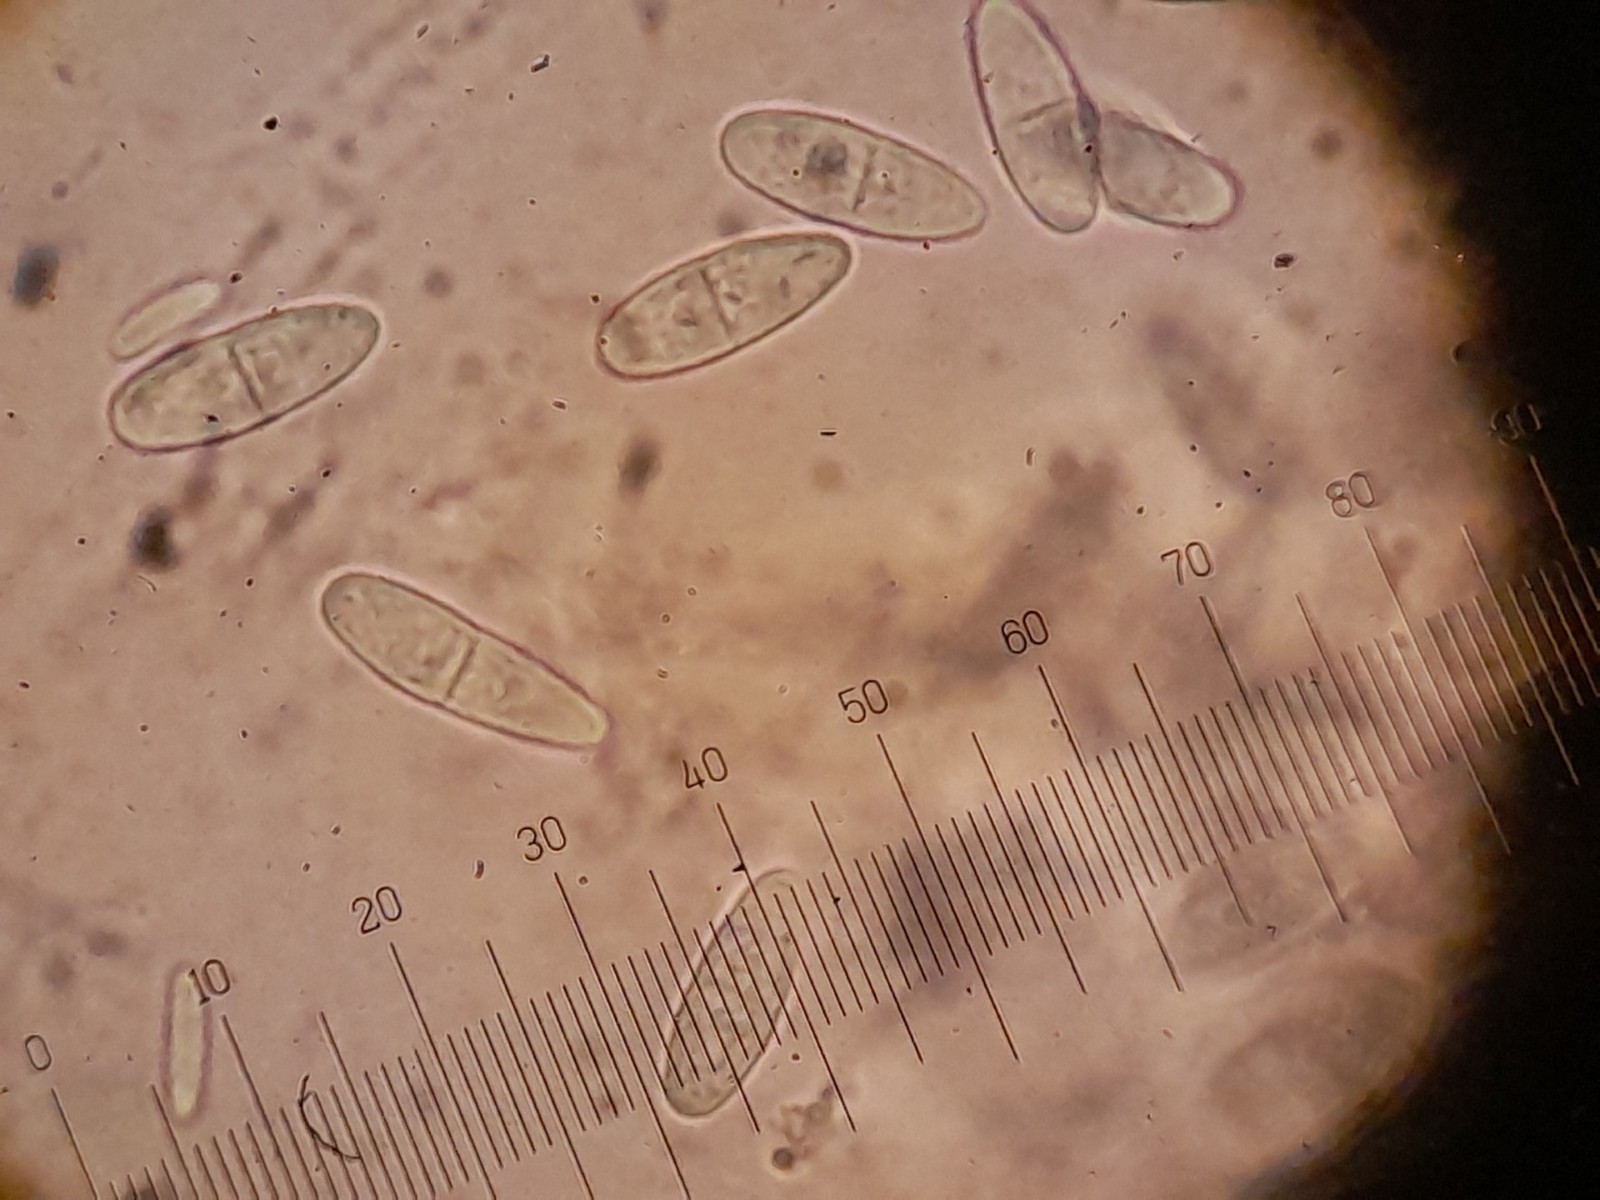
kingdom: Fungi
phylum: Ascomycota
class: Sordariomycetes
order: Diaporthales
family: Gnomoniaceae
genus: Plagiostoma
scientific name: Plagiostoma salicellum
